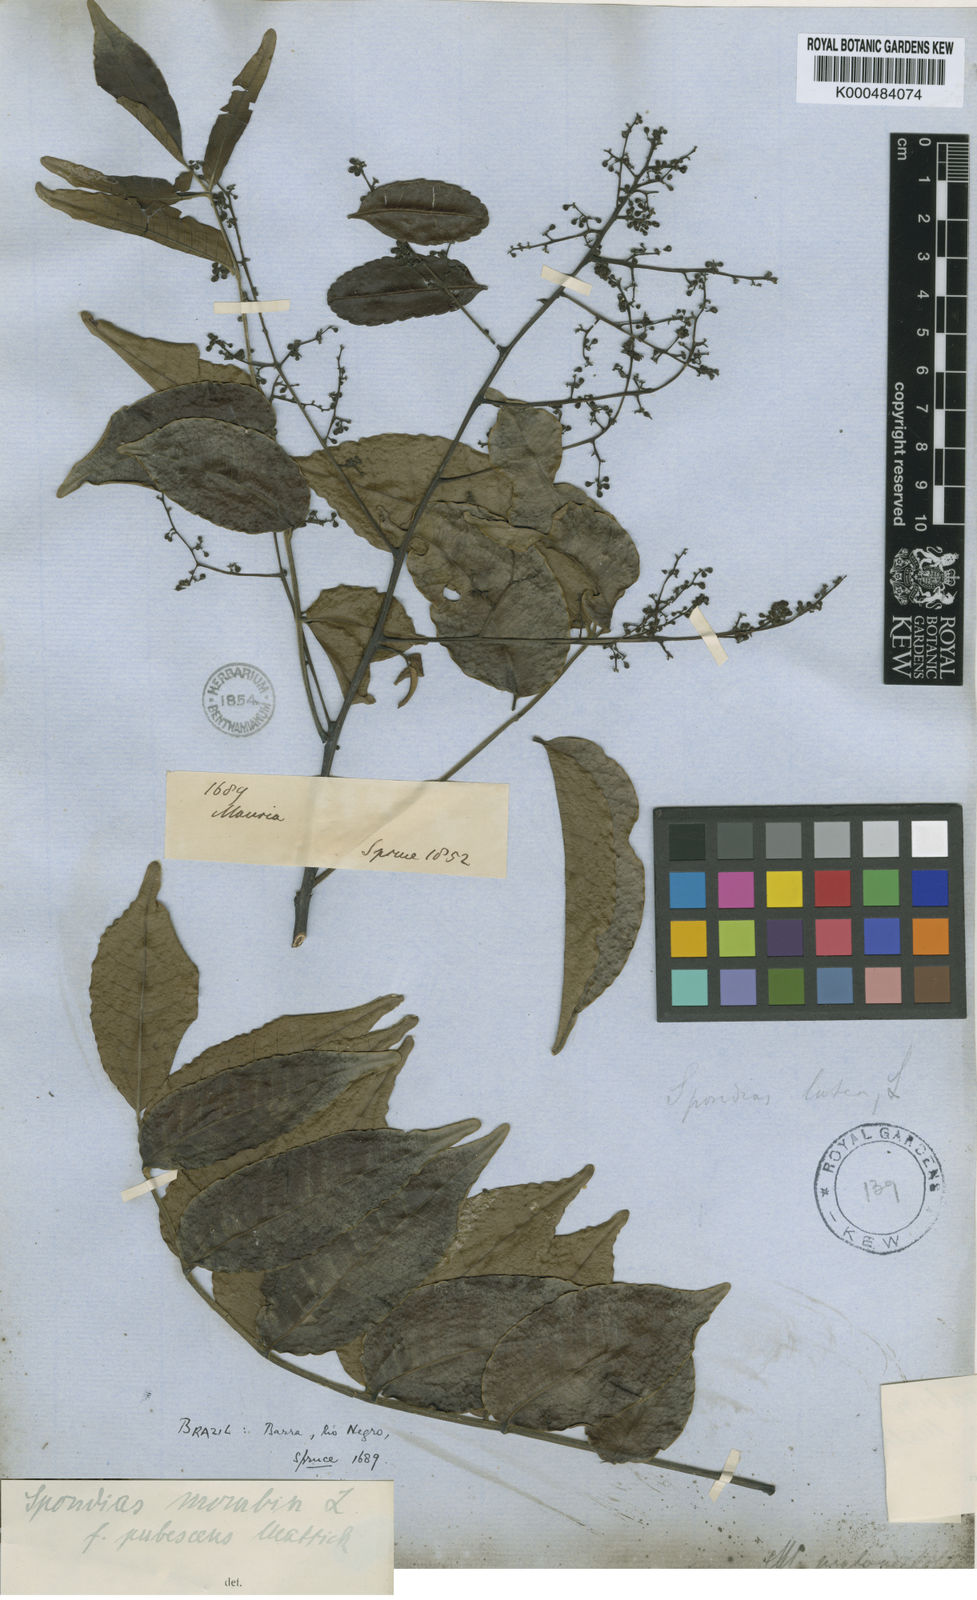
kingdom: Plantae
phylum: Tracheophyta
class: Magnoliopsida
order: Sapindales
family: Anacardiaceae
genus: Spondias
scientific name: Spondias mombin
